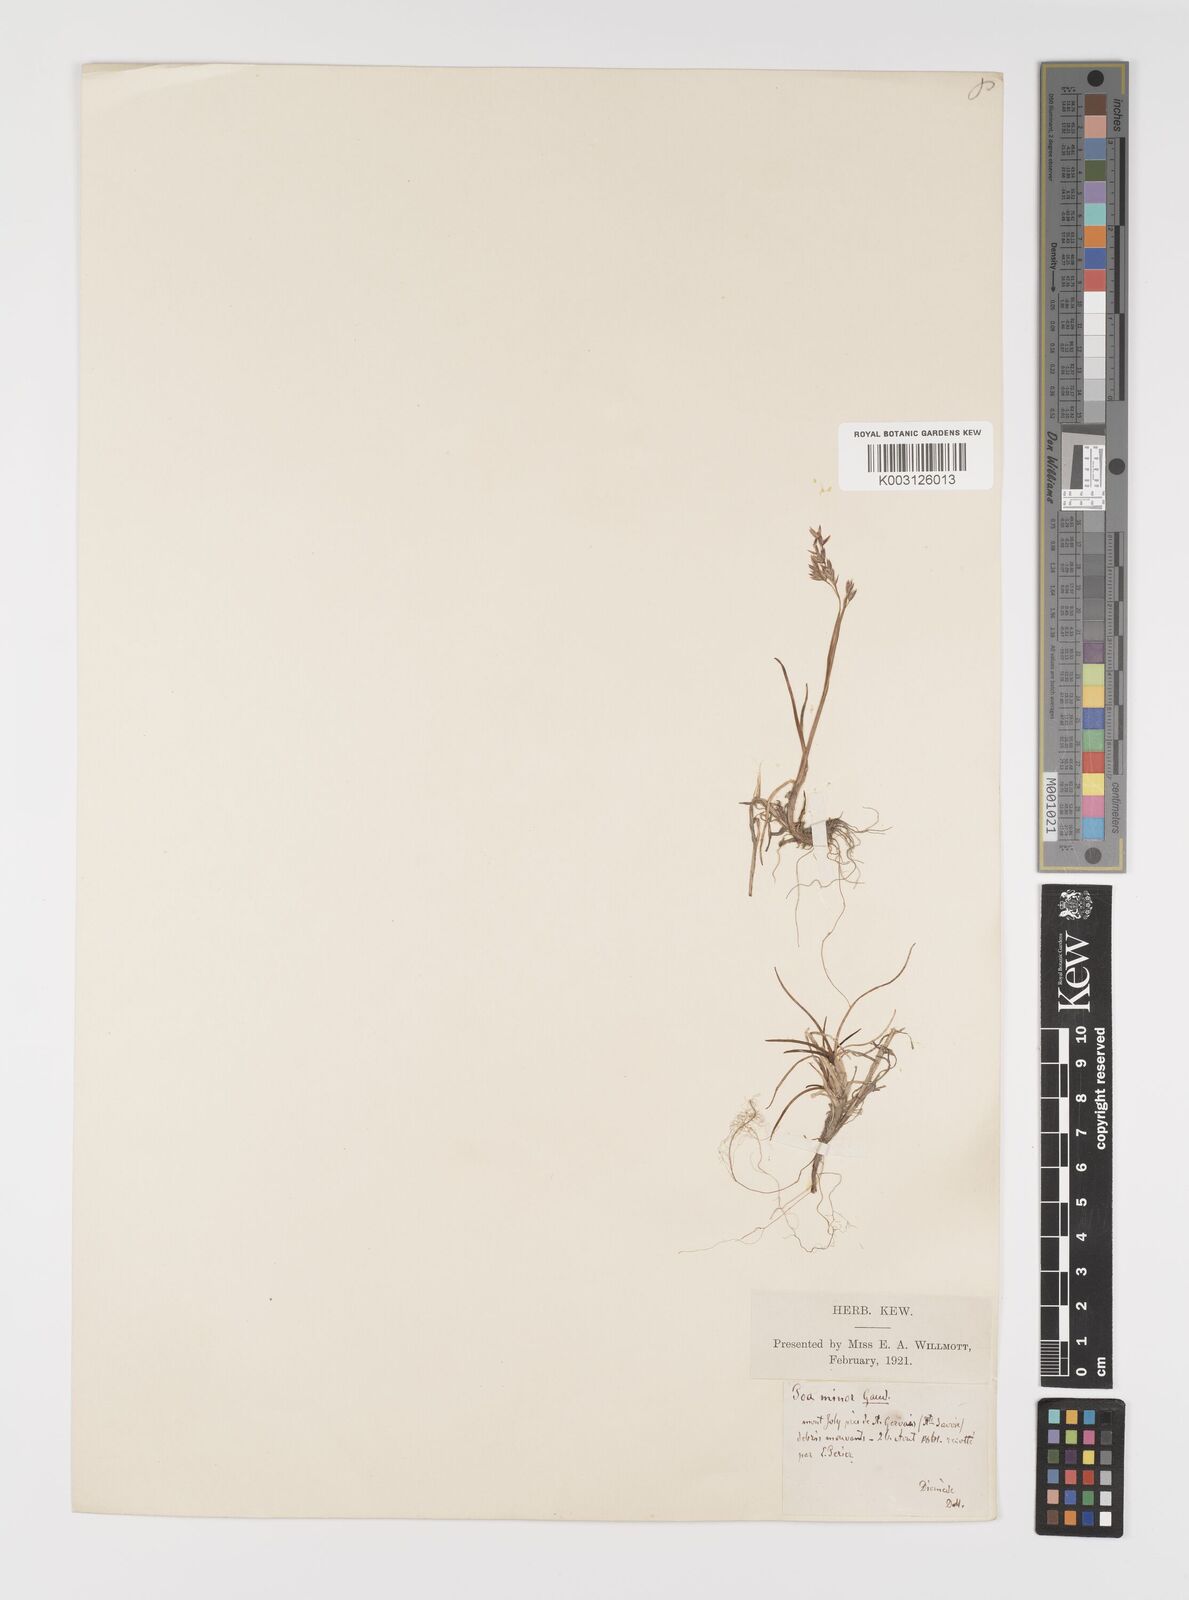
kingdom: Plantae
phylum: Tracheophyta
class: Liliopsida
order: Poales
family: Poaceae
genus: Poa
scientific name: Poa minor
